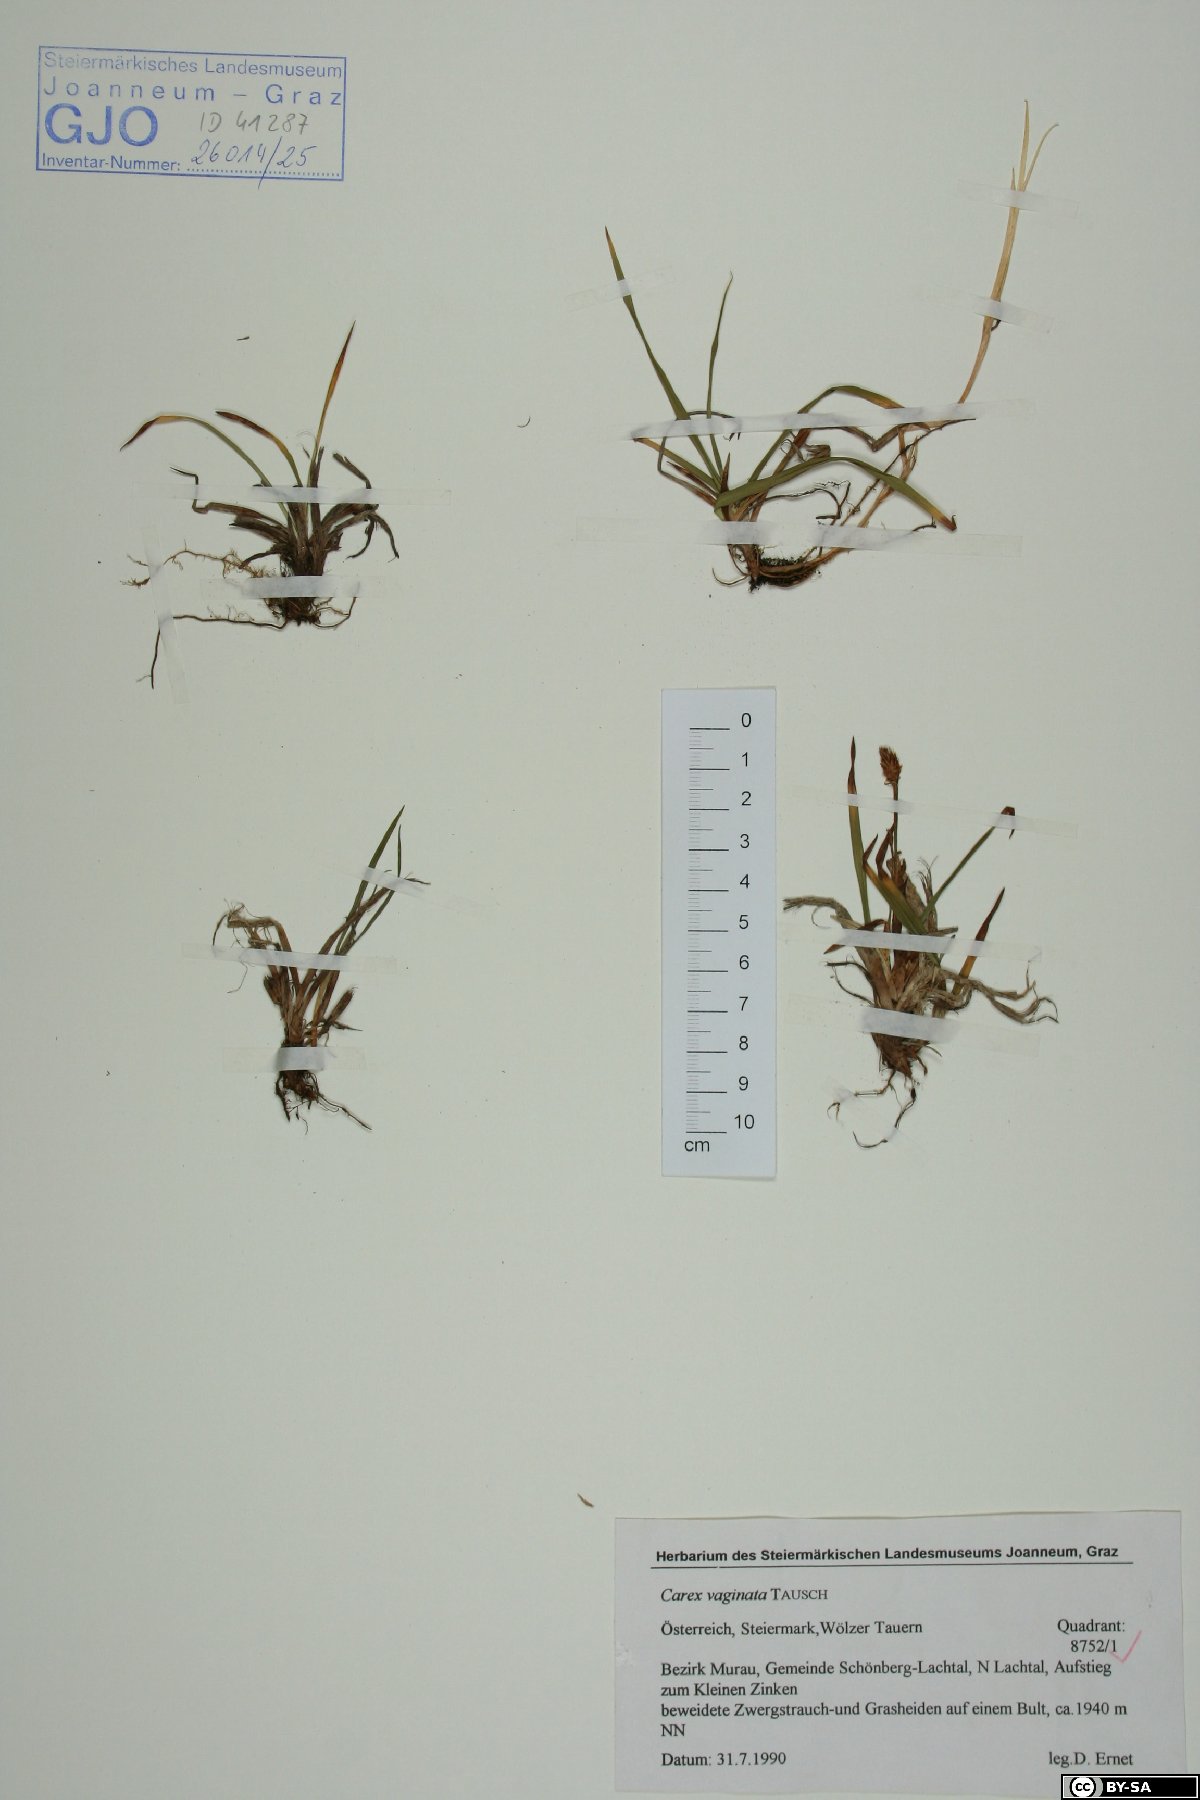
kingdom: Plantae
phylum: Tracheophyta
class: Liliopsida
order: Poales
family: Cyperaceae
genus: Carex
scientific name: Carex vaginata
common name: Sheathed sedge
